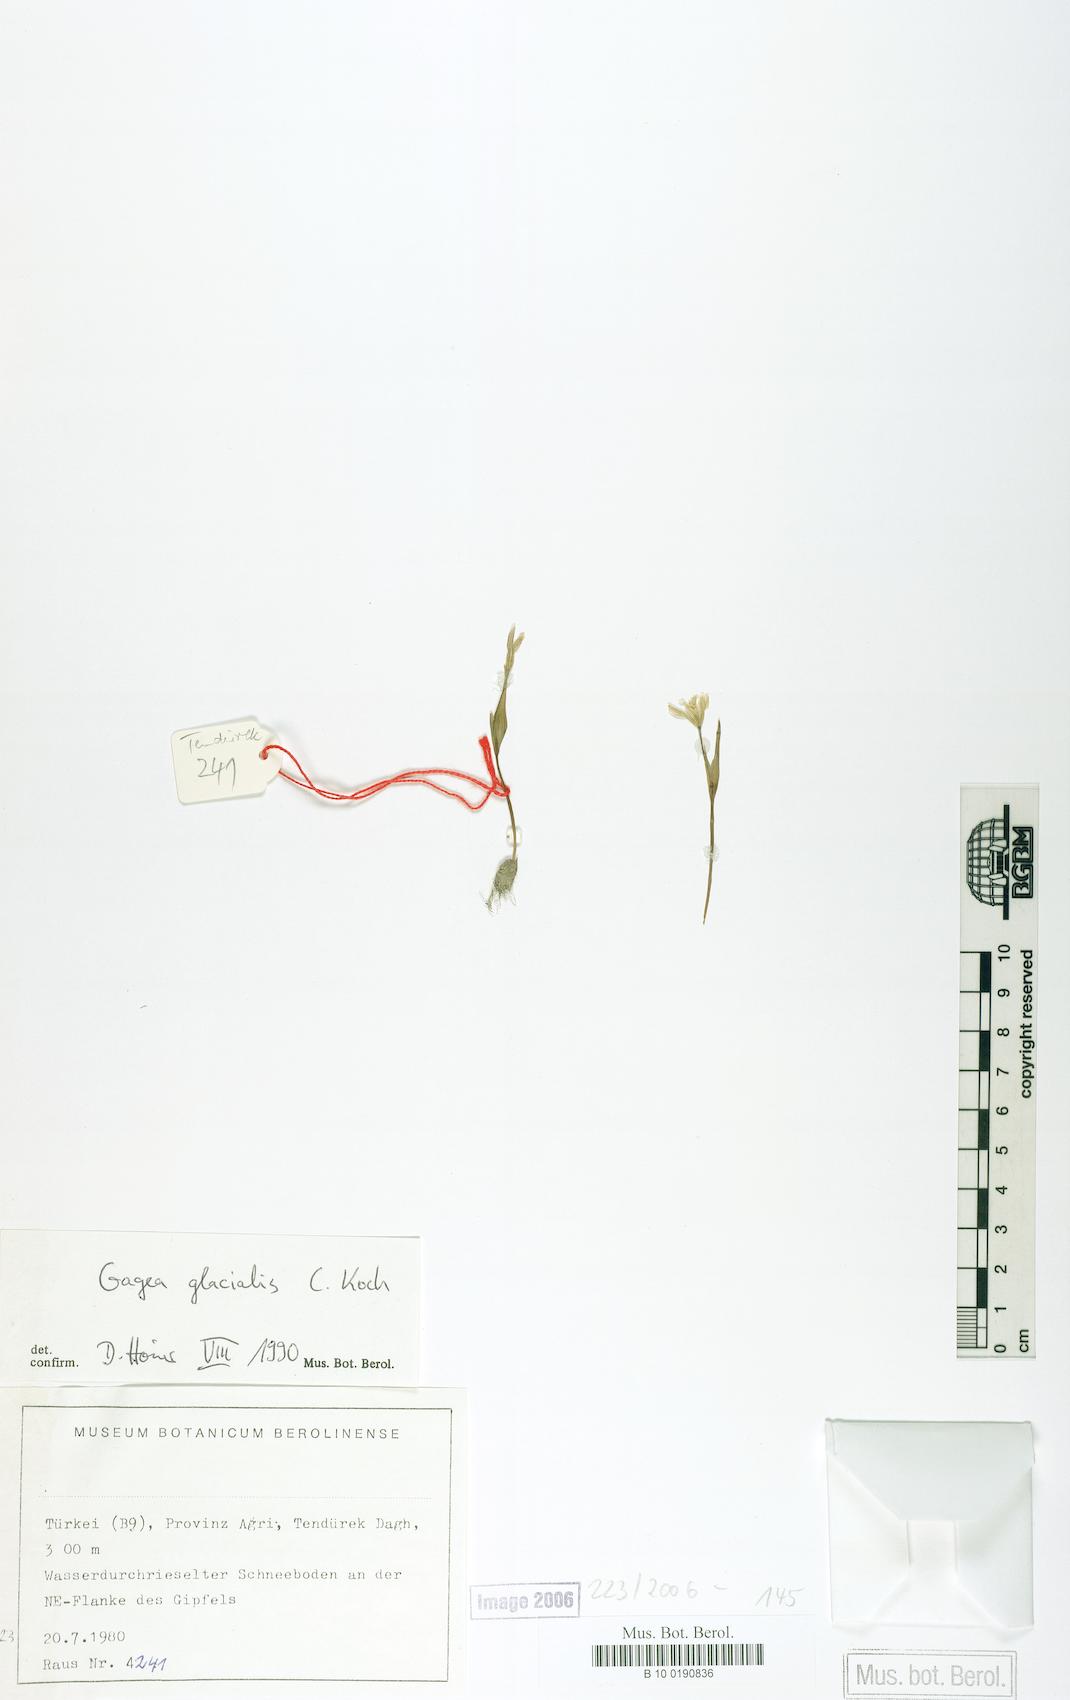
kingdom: Plantae
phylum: Tracheophyta
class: Liliopsida
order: Liliales
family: Liliaceae
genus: Gagea
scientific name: Gagea glacialis
